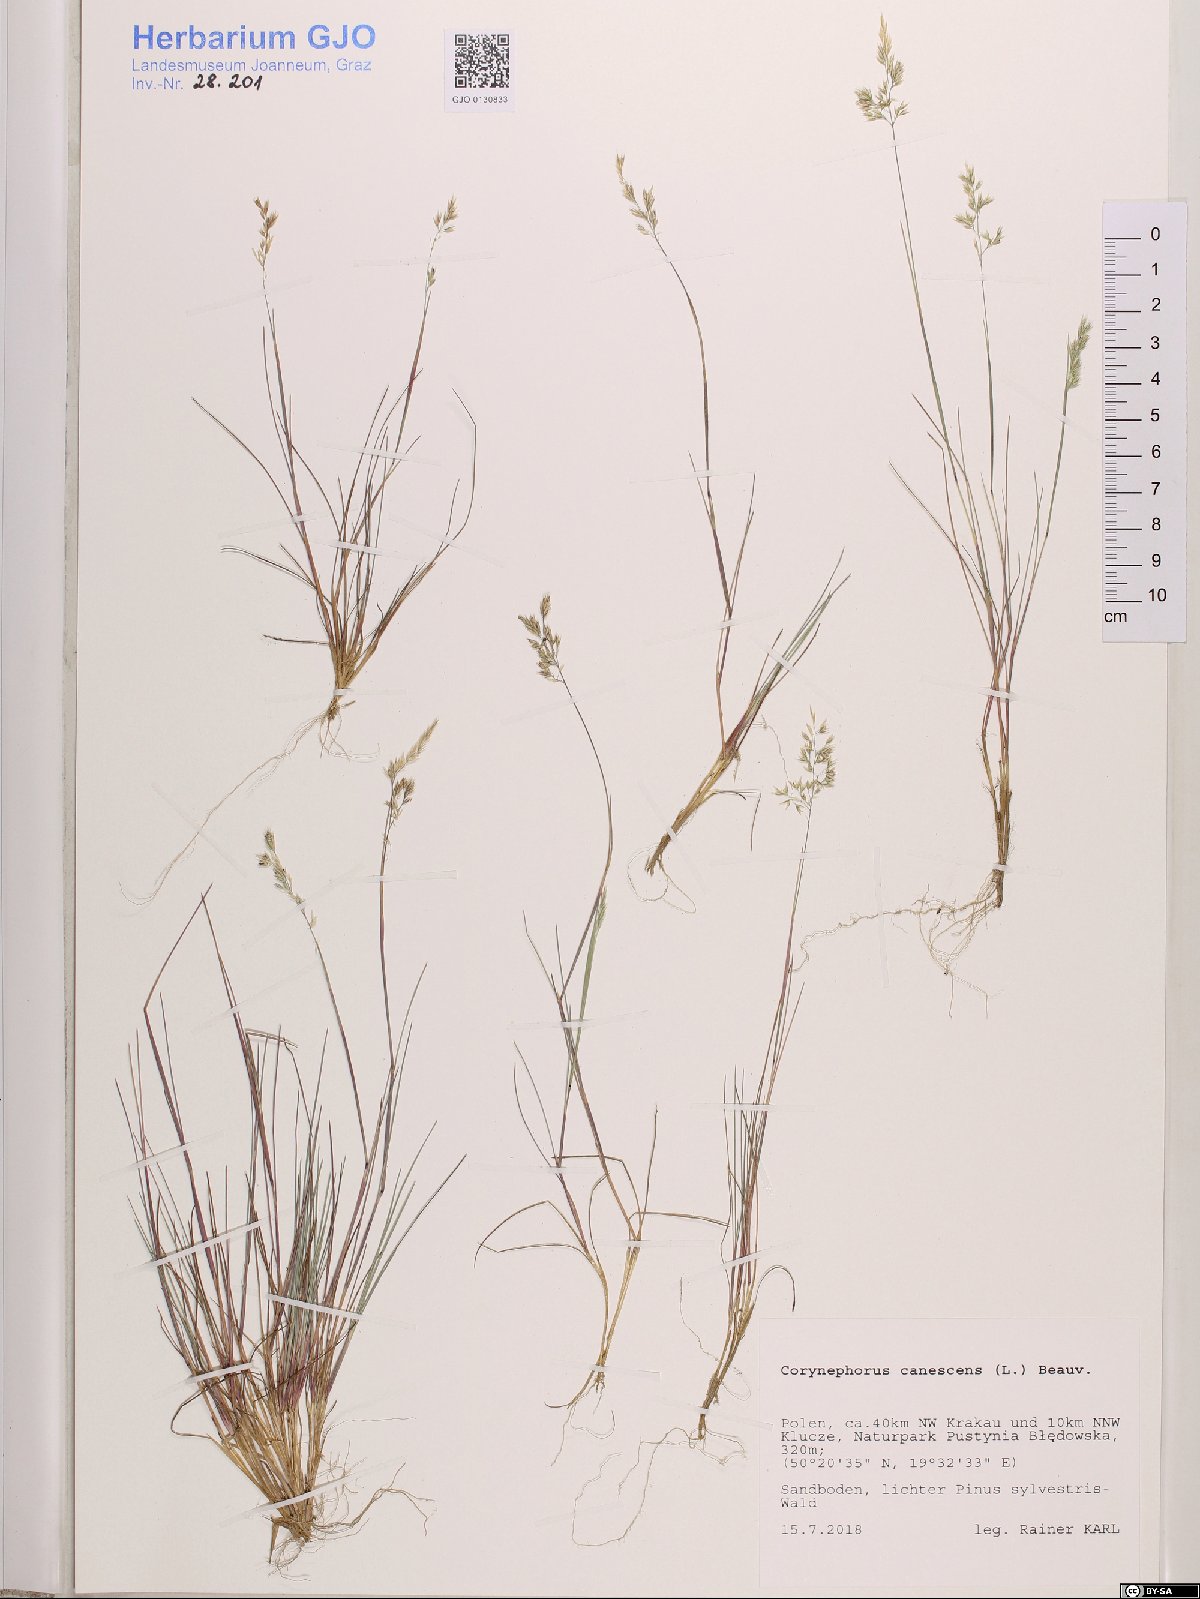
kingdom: Plantae
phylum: Tracheophyta
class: Liliopsida
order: Poales
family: Poaceae
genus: Corynephorus
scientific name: Corynephorus canescens
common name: Grey hair-grass
